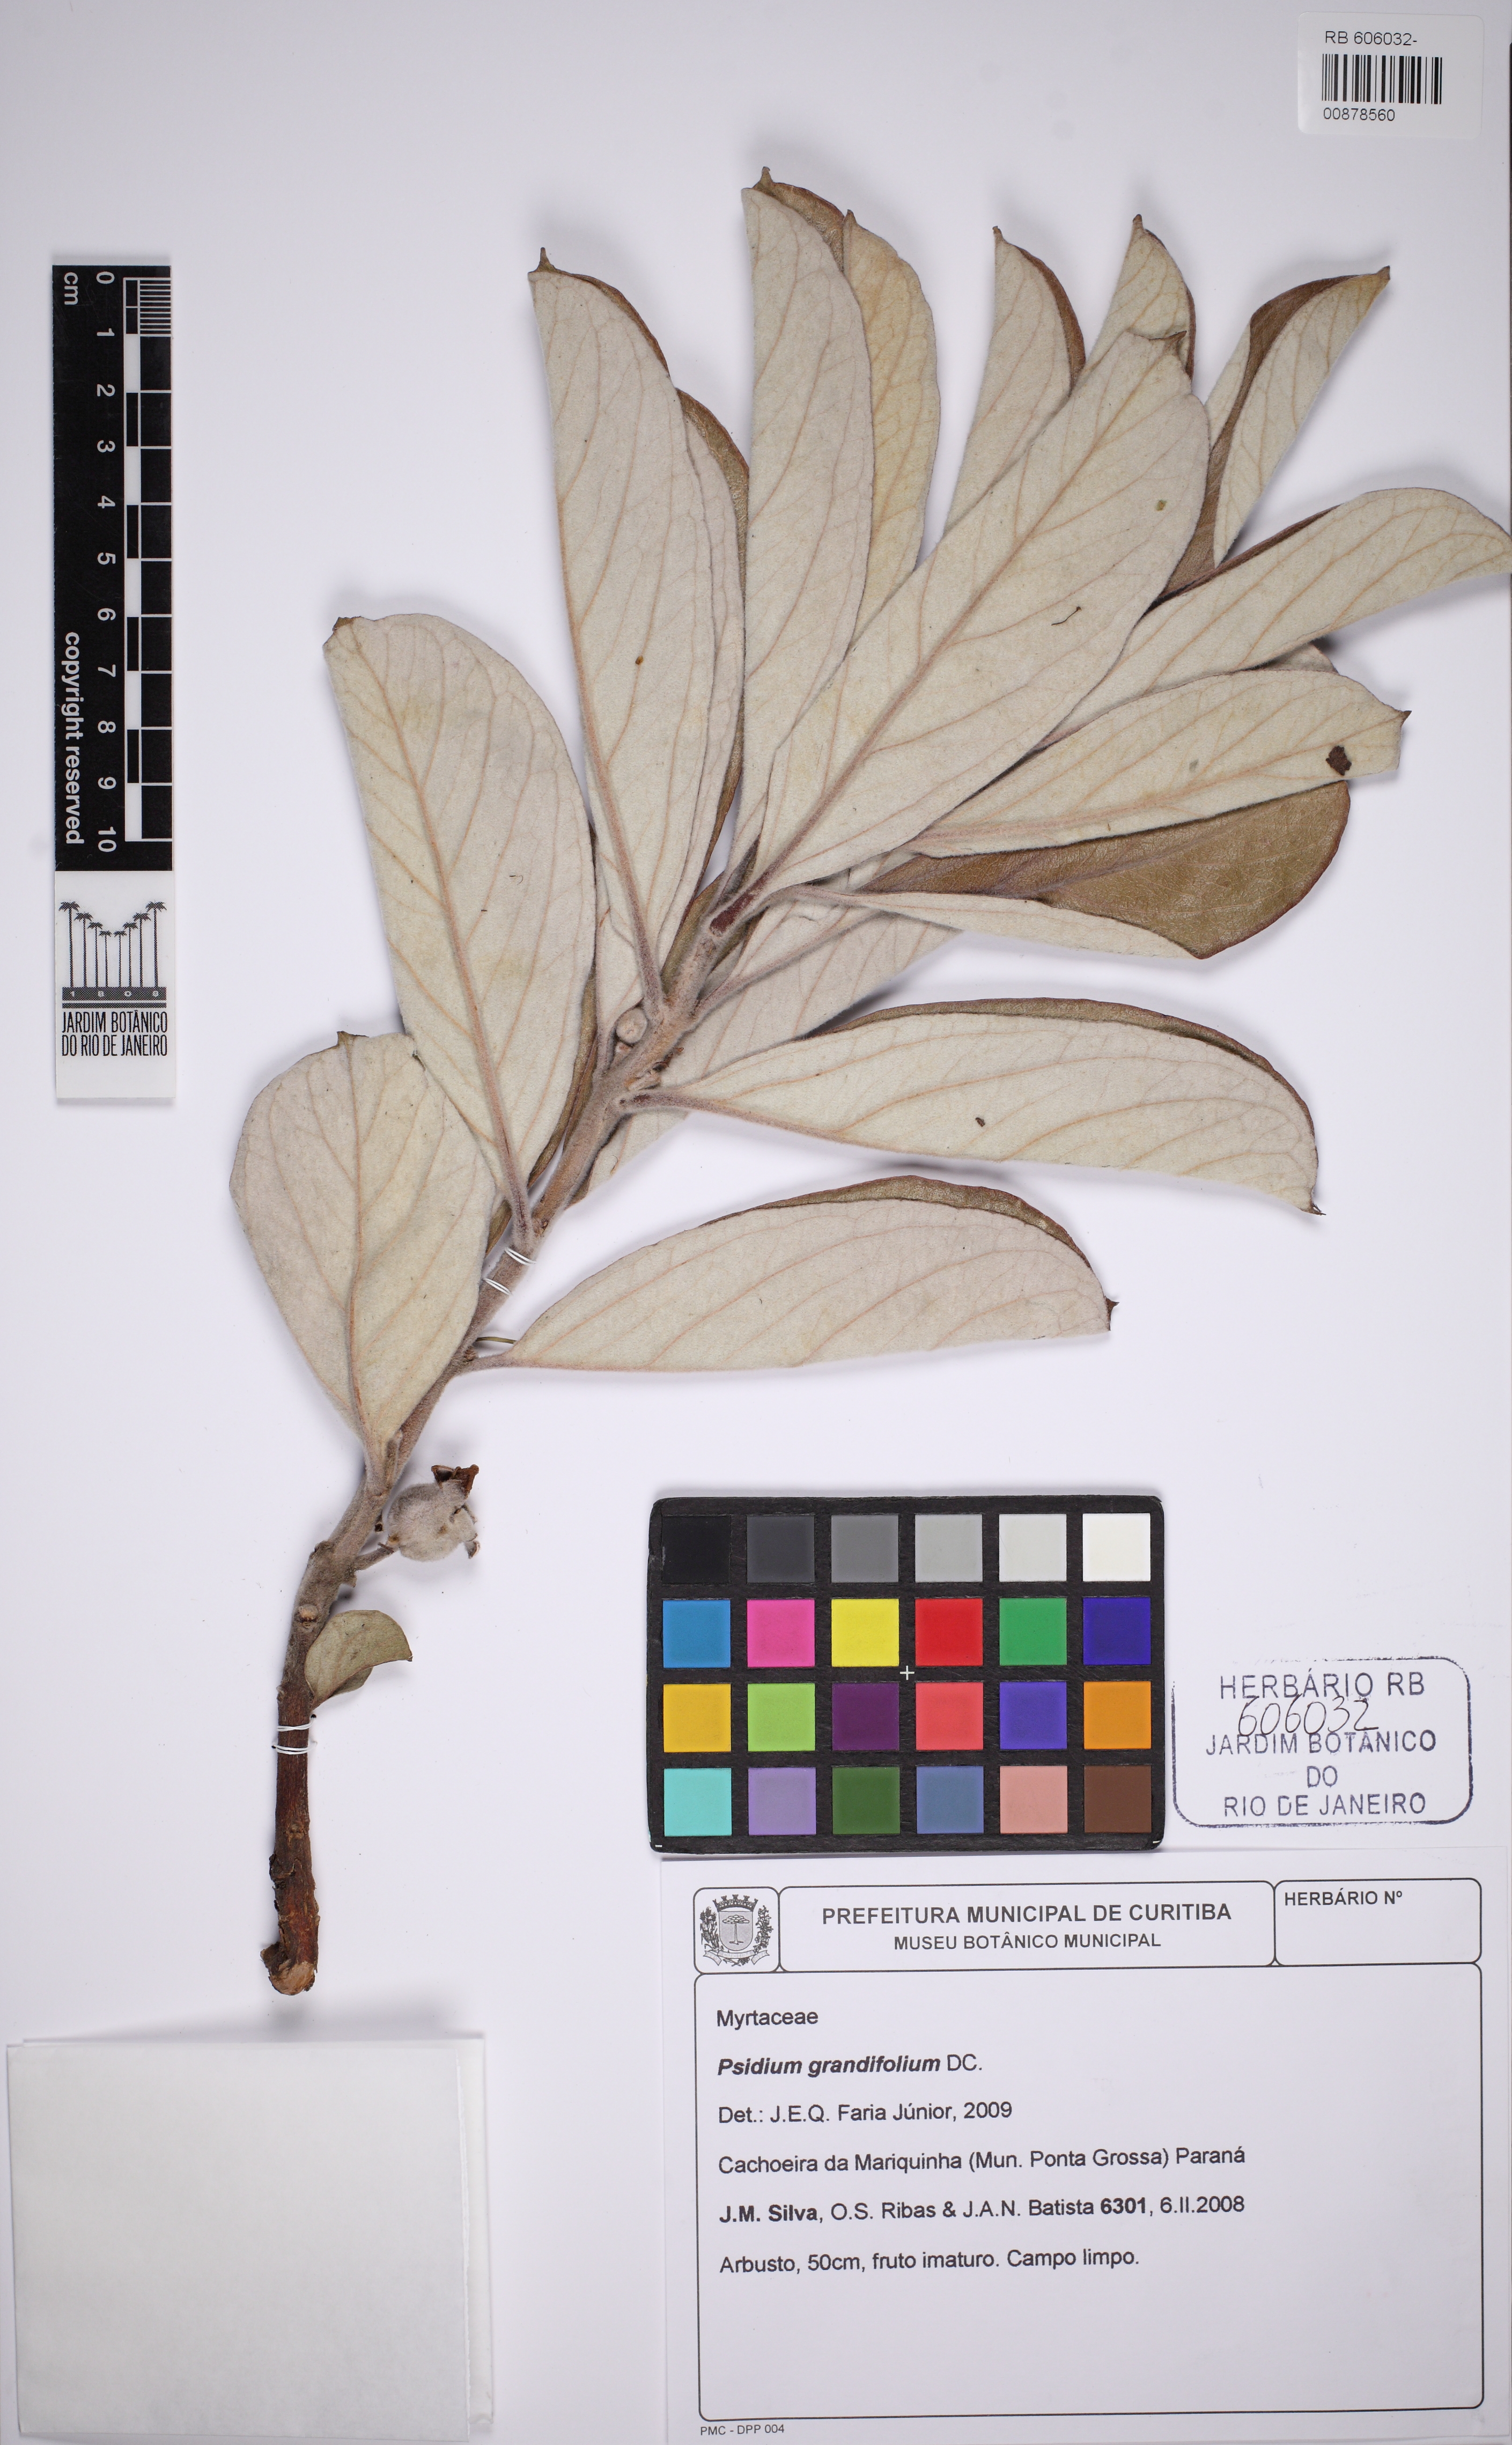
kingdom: Plantae
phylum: Tracheophyta
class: Magnoliopsida
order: Myrtales
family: Myrtaceae
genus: Psidium
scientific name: Psidium grandifolium
